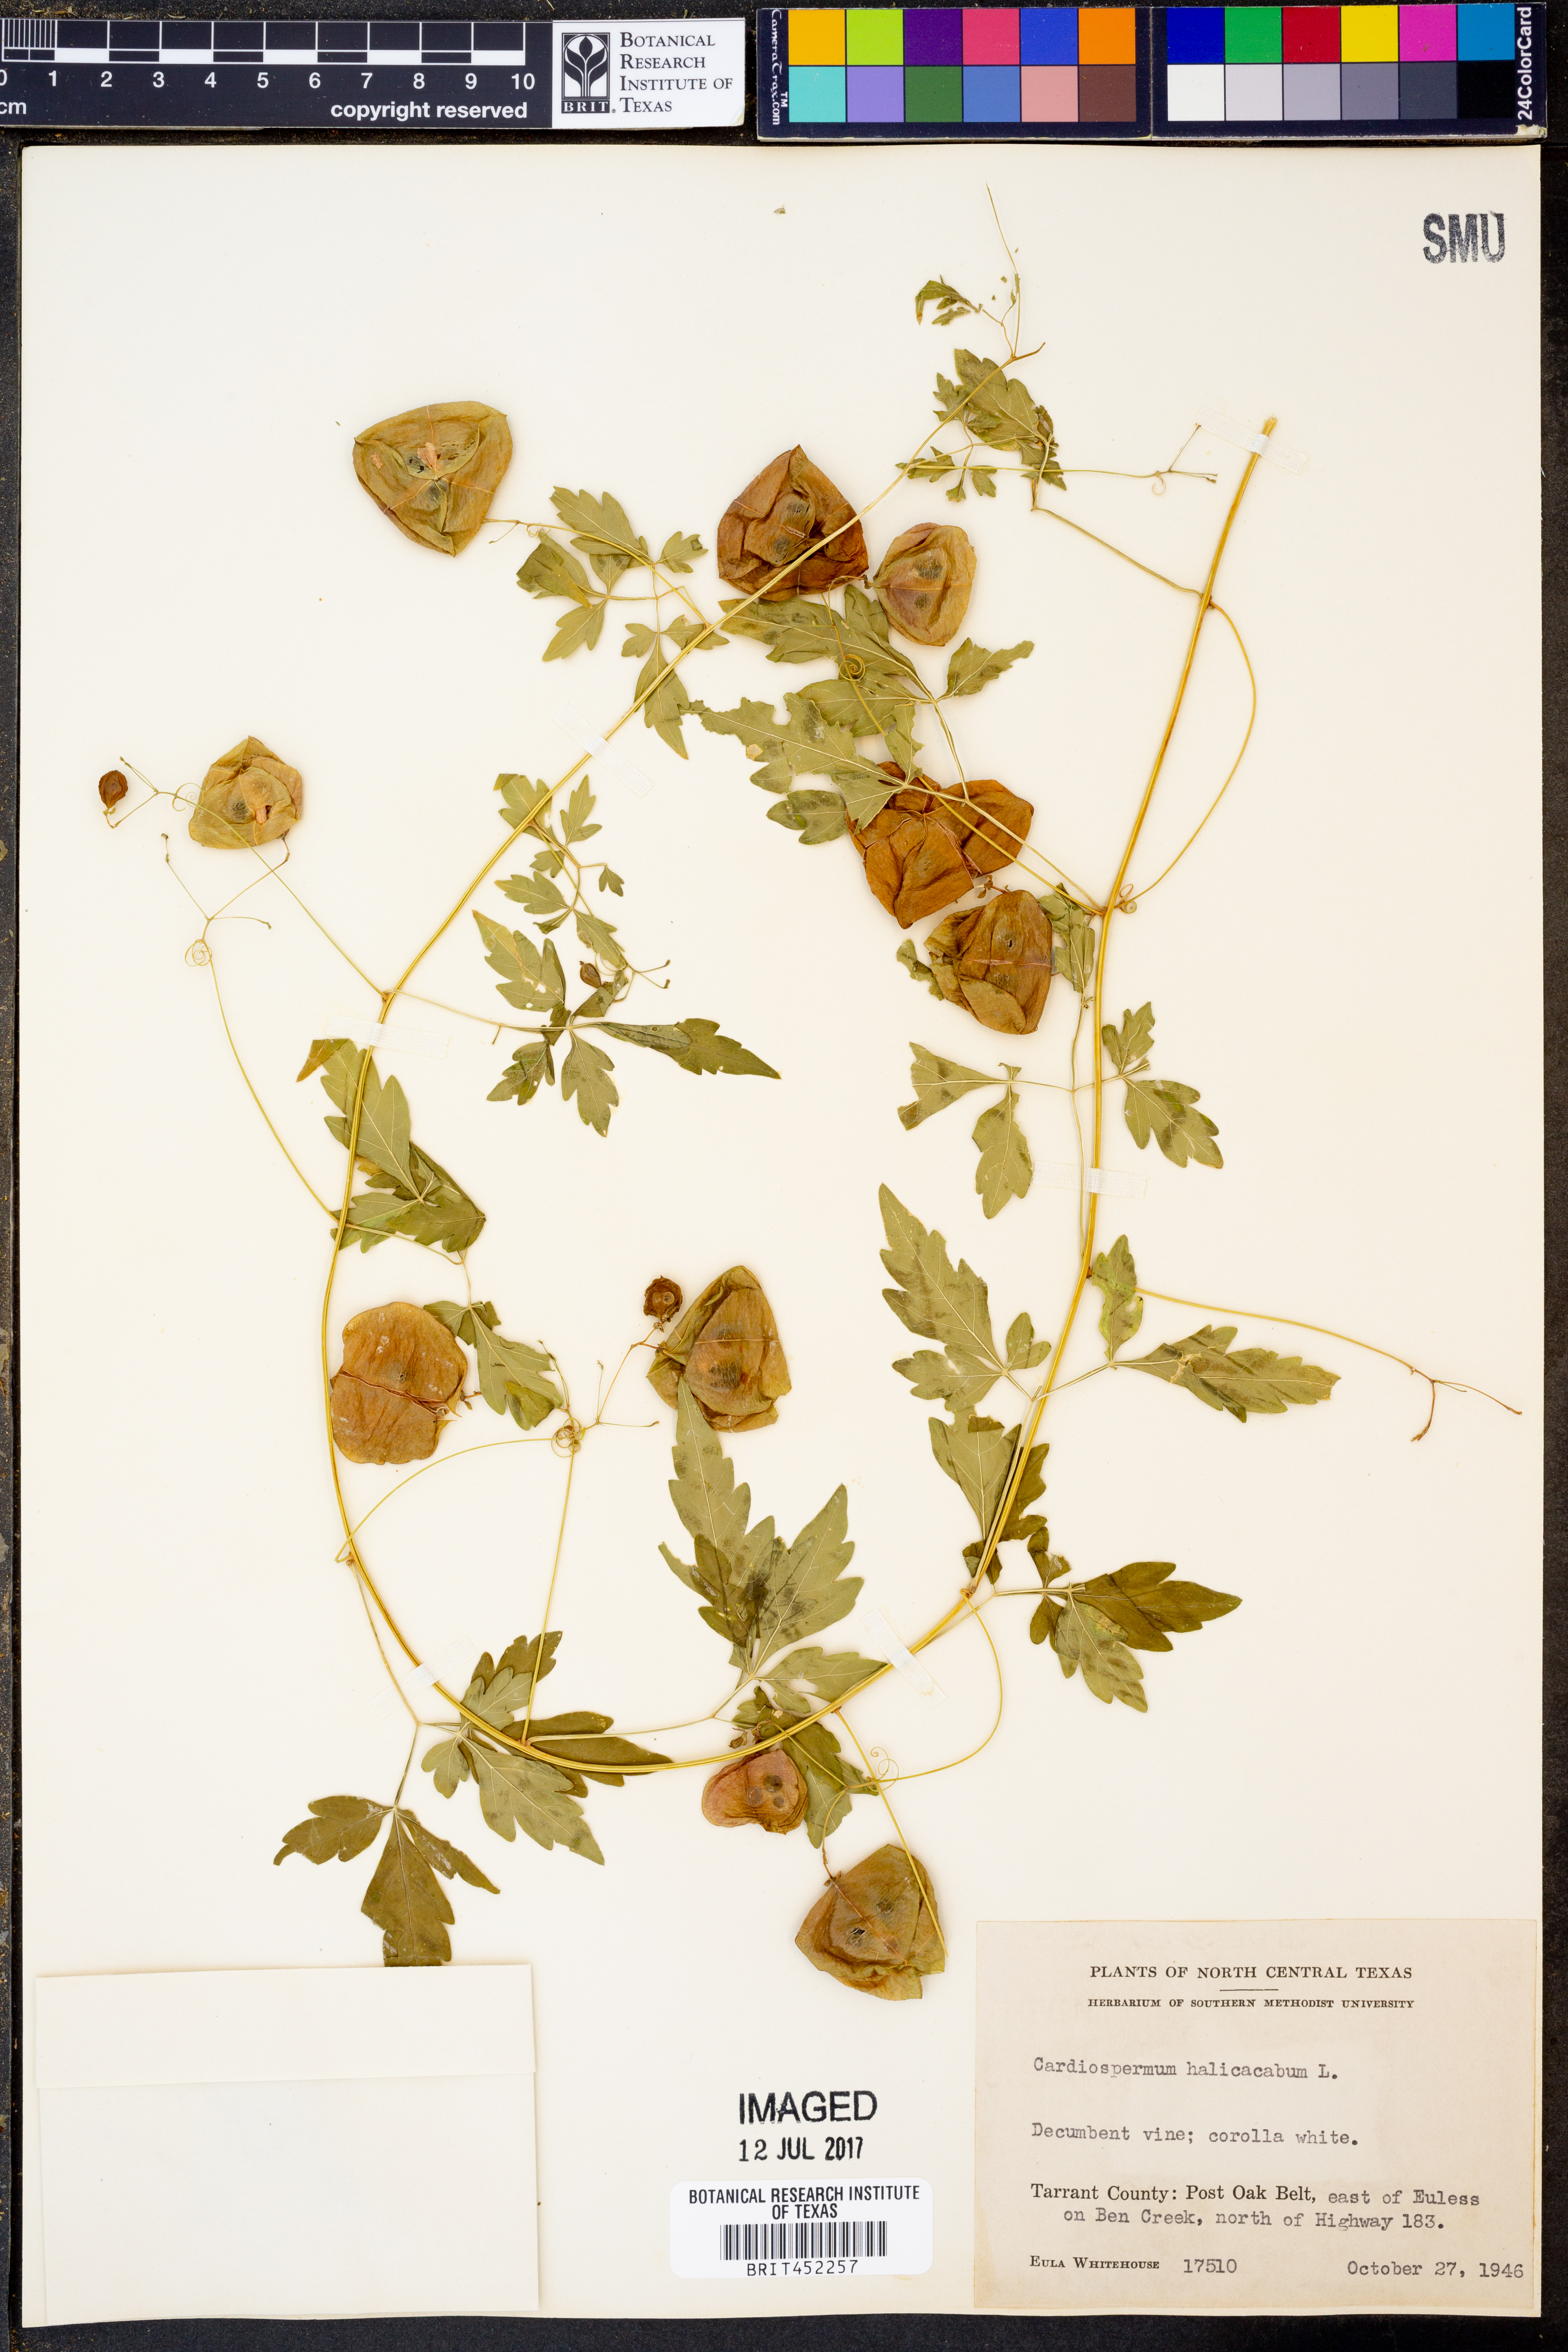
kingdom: Plantae
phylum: Tracheophyta
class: Magnoliopsida
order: Sapindales
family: Sapindaceae
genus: Cardiospermum
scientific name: Cardiospermum halicacabum
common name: Balloon vine
